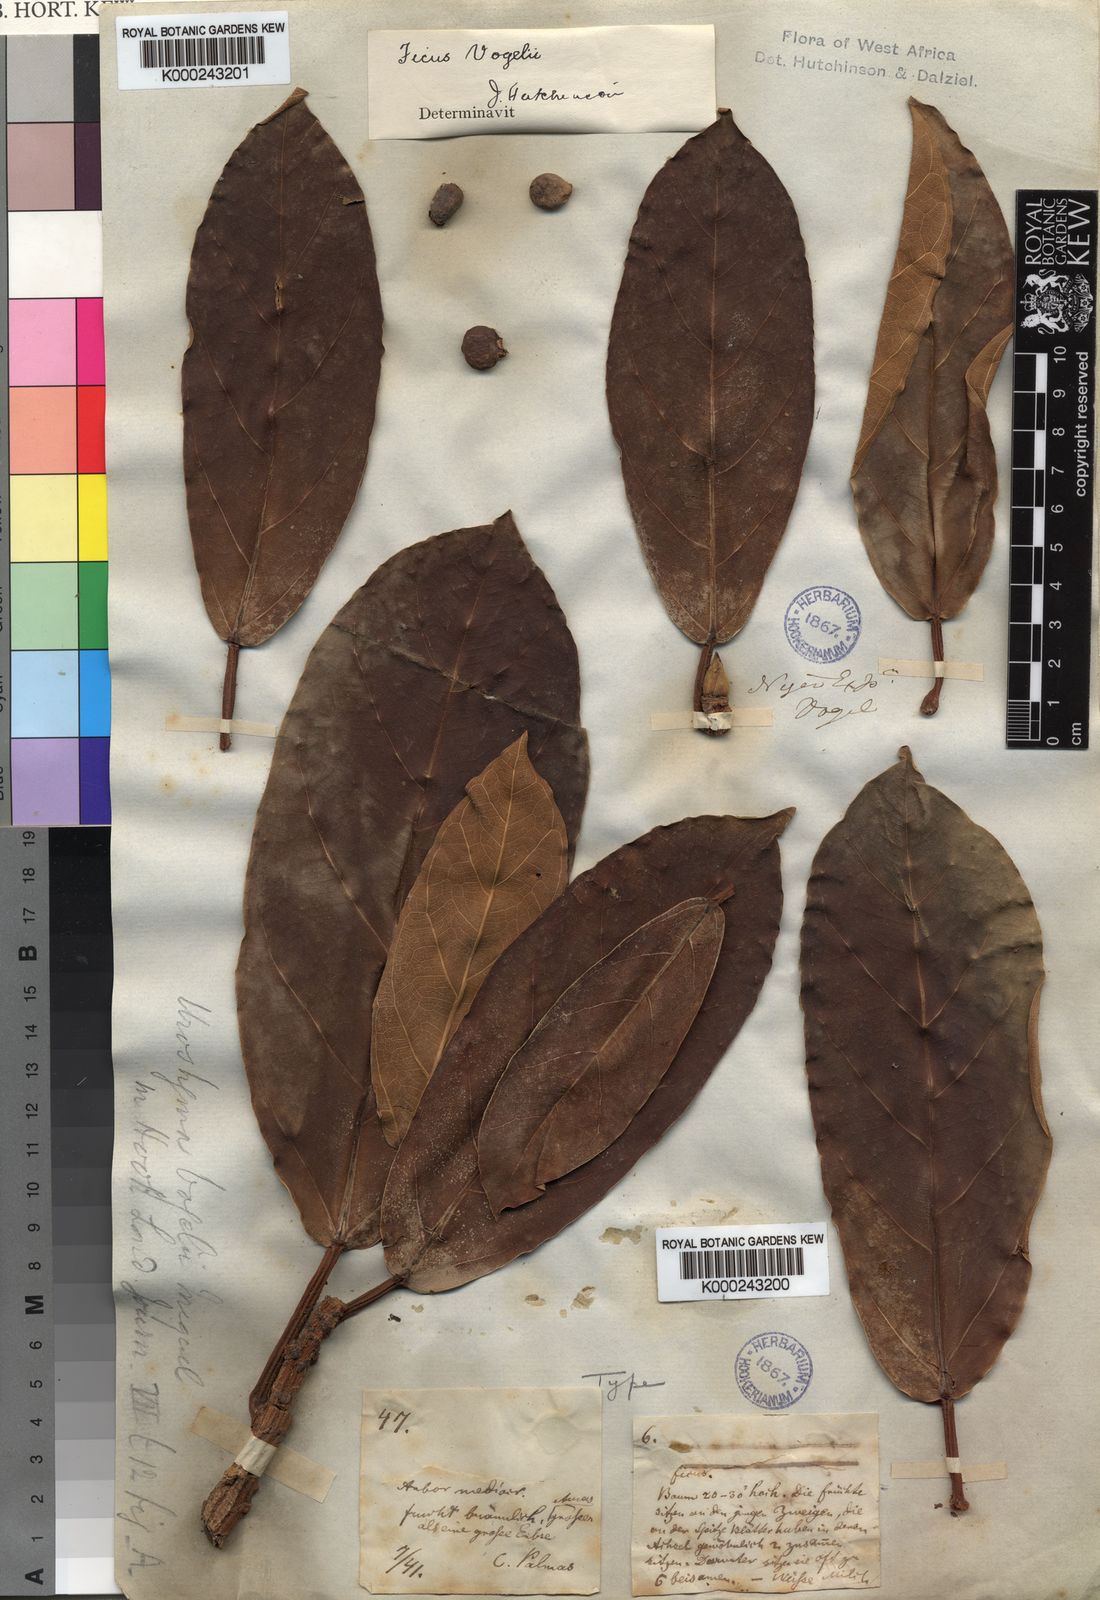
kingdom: Plantae
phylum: Tracheophyta
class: Magnoliopsida
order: Rosales
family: Moraceae
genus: Ficus
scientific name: Ficus lutea
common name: Giant-leaved fig
